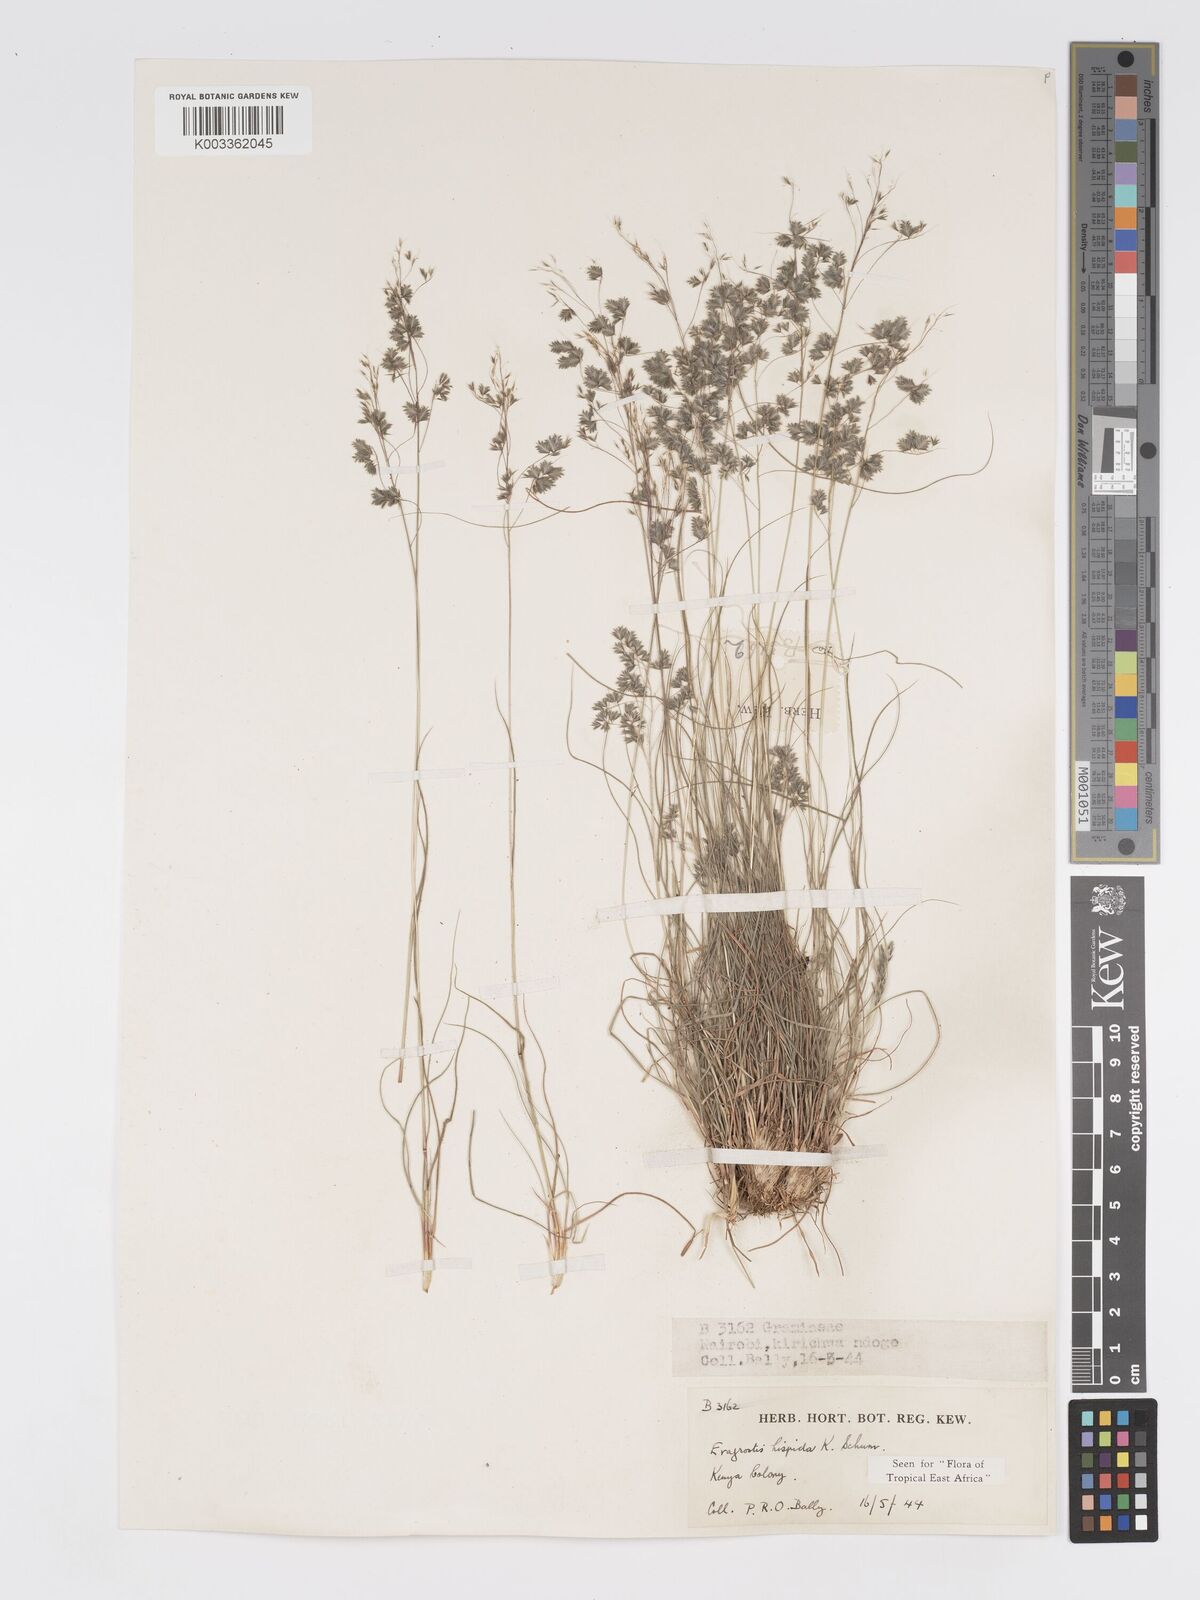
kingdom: Plantae
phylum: Tracheophyta
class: Liliopsida
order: Poales
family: Poaceae
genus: Eragrostis
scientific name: Eragrostis hispida
